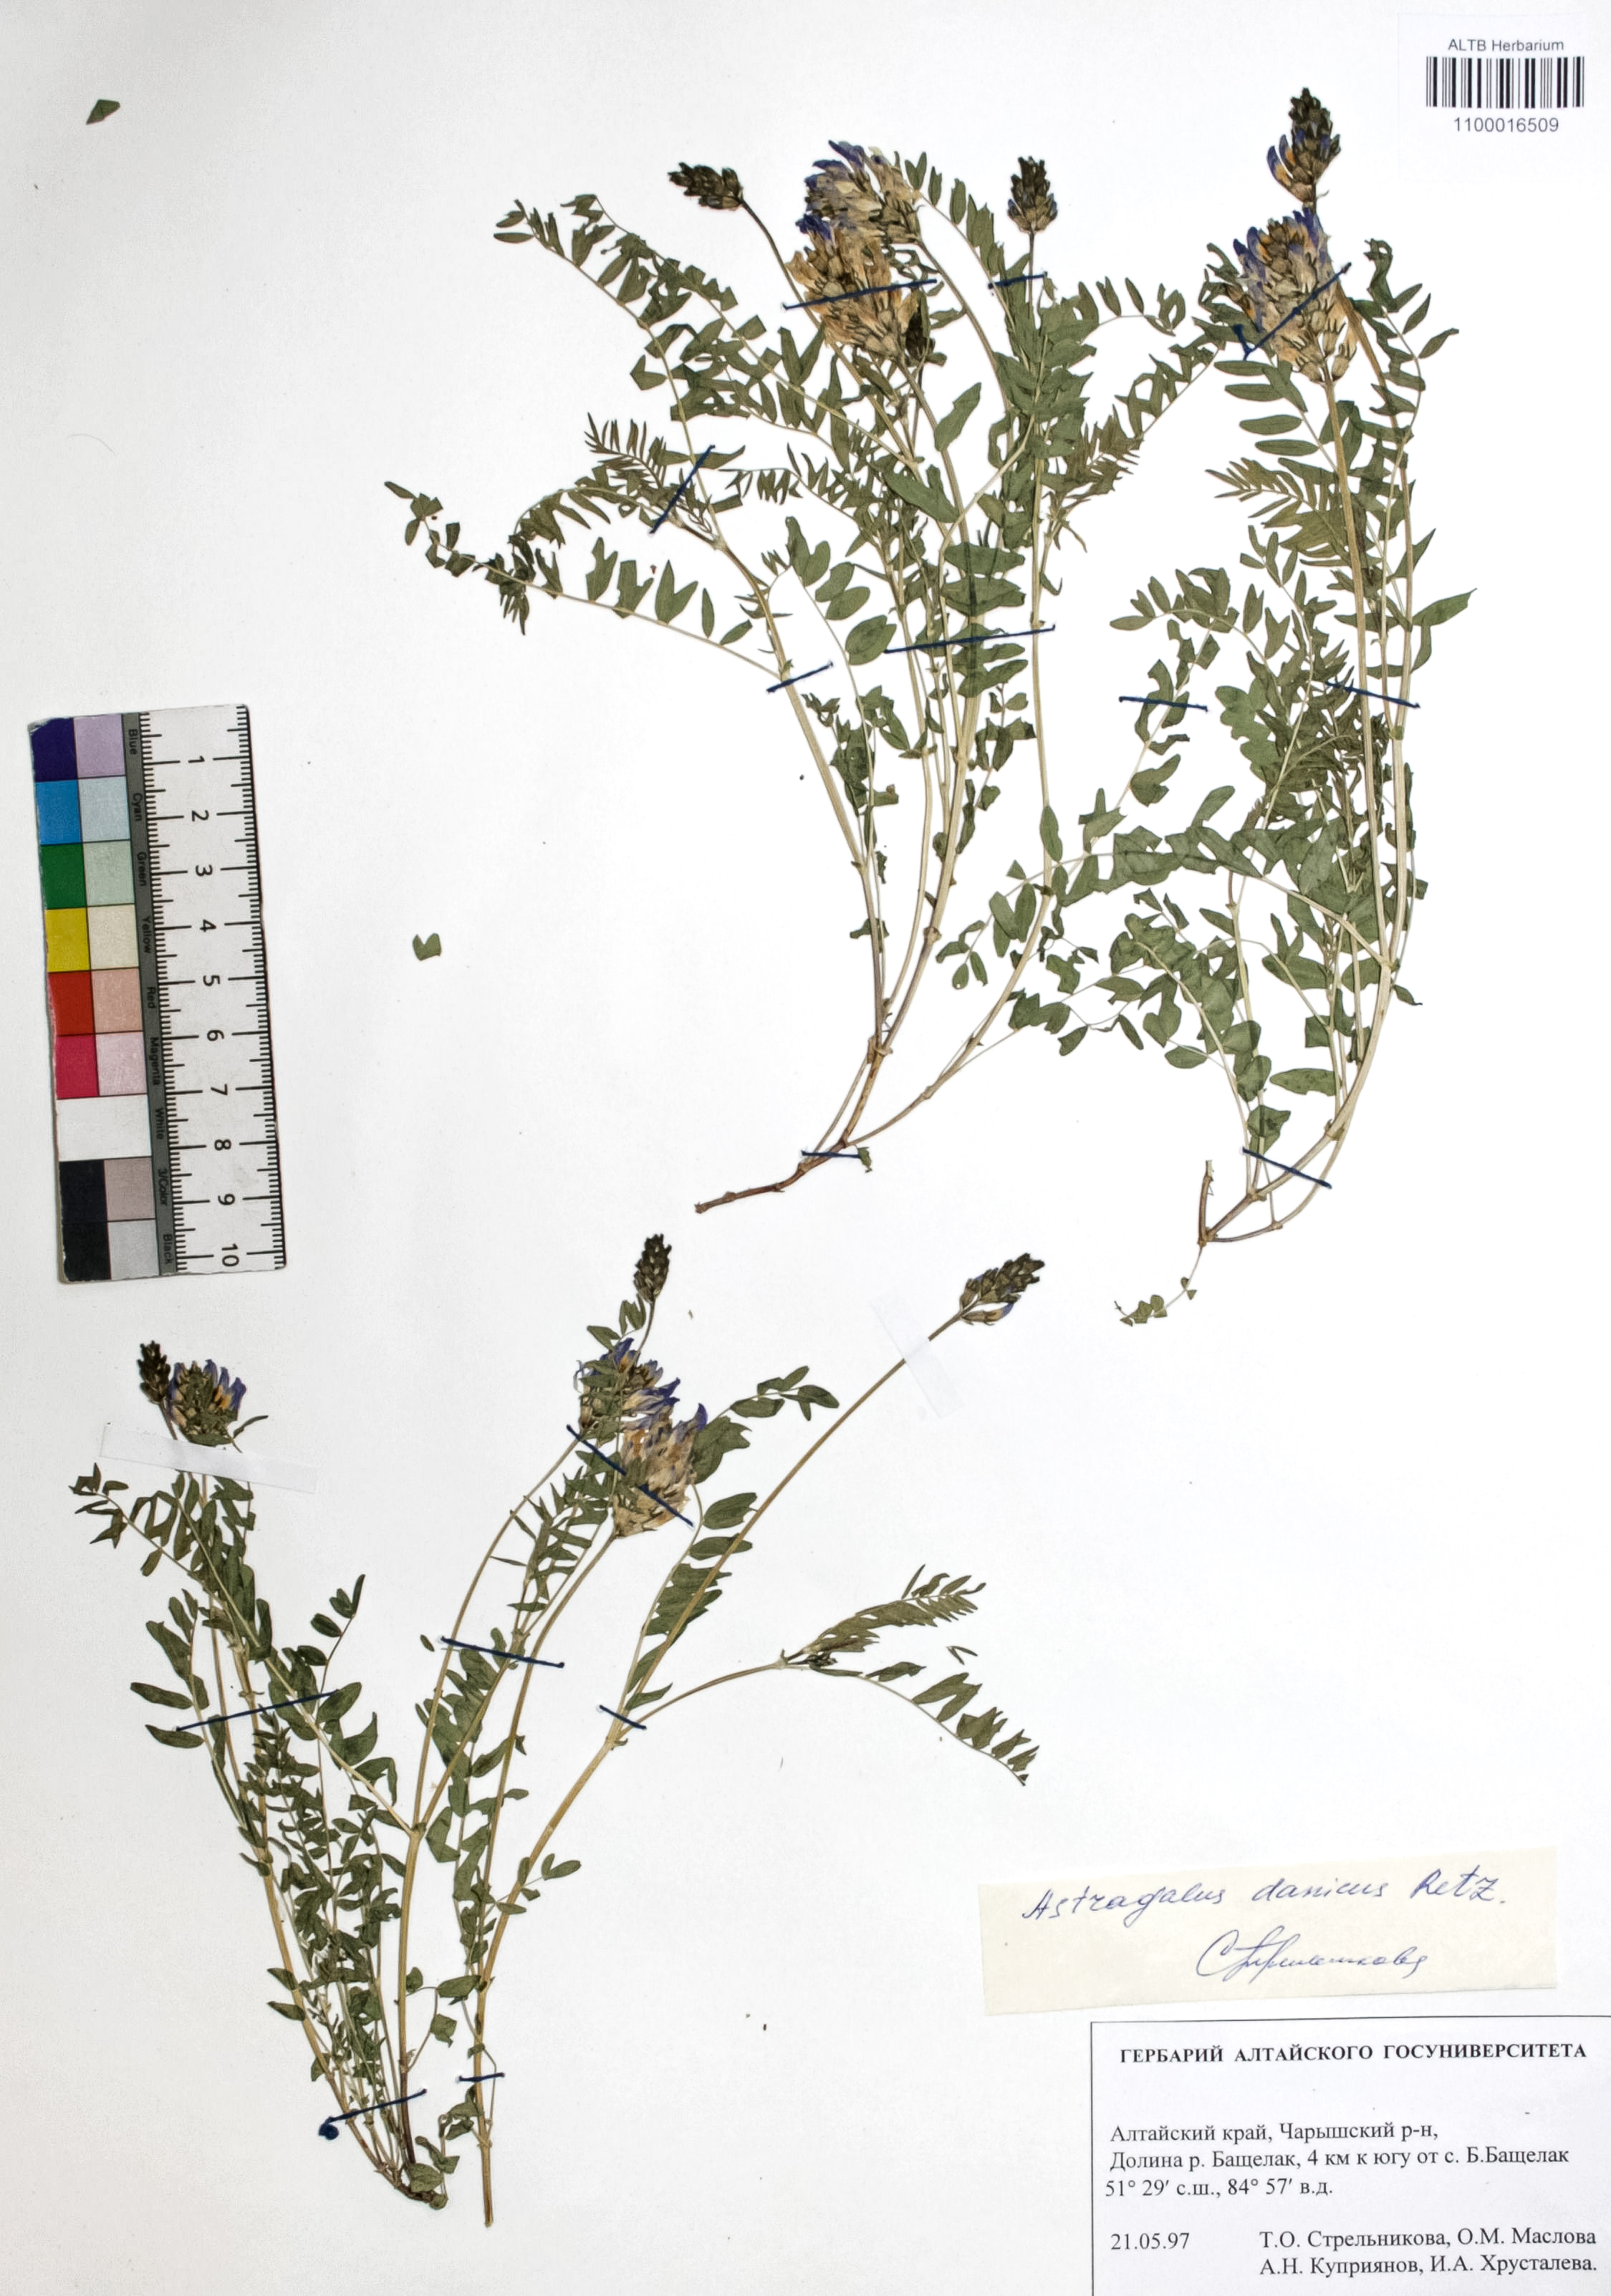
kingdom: Plantae
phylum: Tracheophyta
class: Magnoliopsida
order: Fabales
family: Fabaceae
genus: Astragalus
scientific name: Astragalus danicus
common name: Purple milk-vetch
